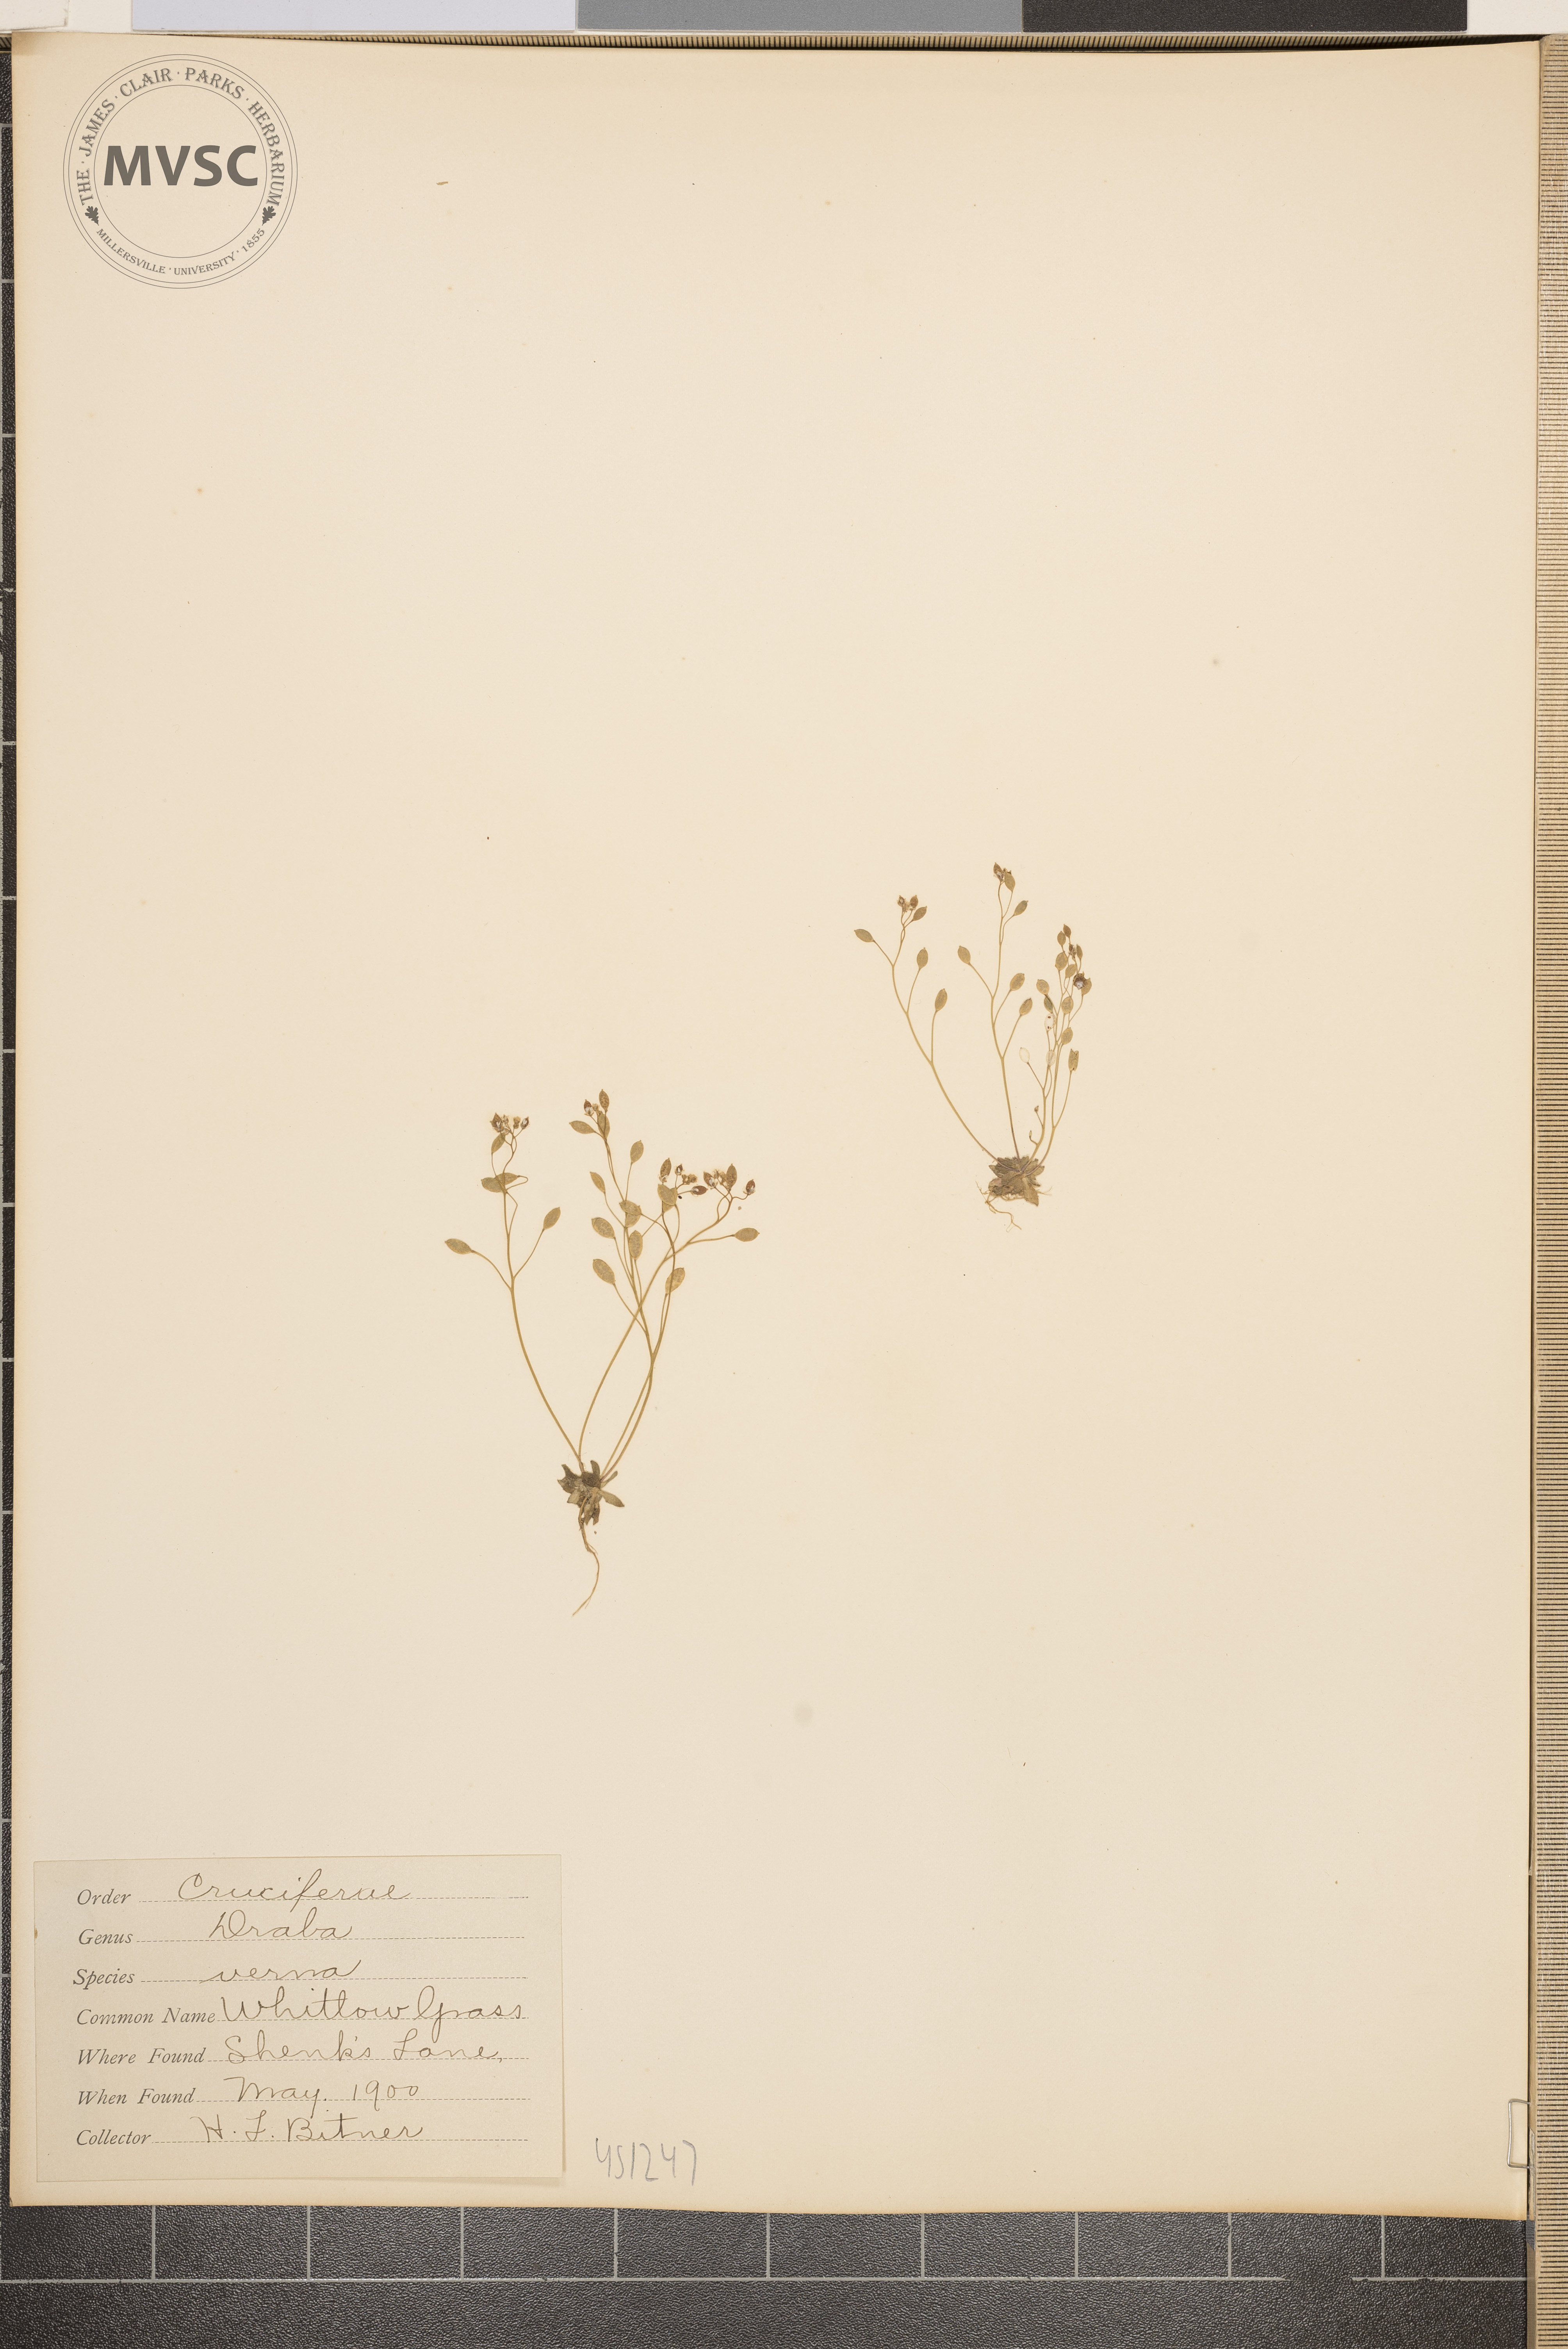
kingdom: Plantae
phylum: Tracheophyta
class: Magnoliopsida
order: Brassicales
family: Brassicaceae
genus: Draba
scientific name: Draba verna
